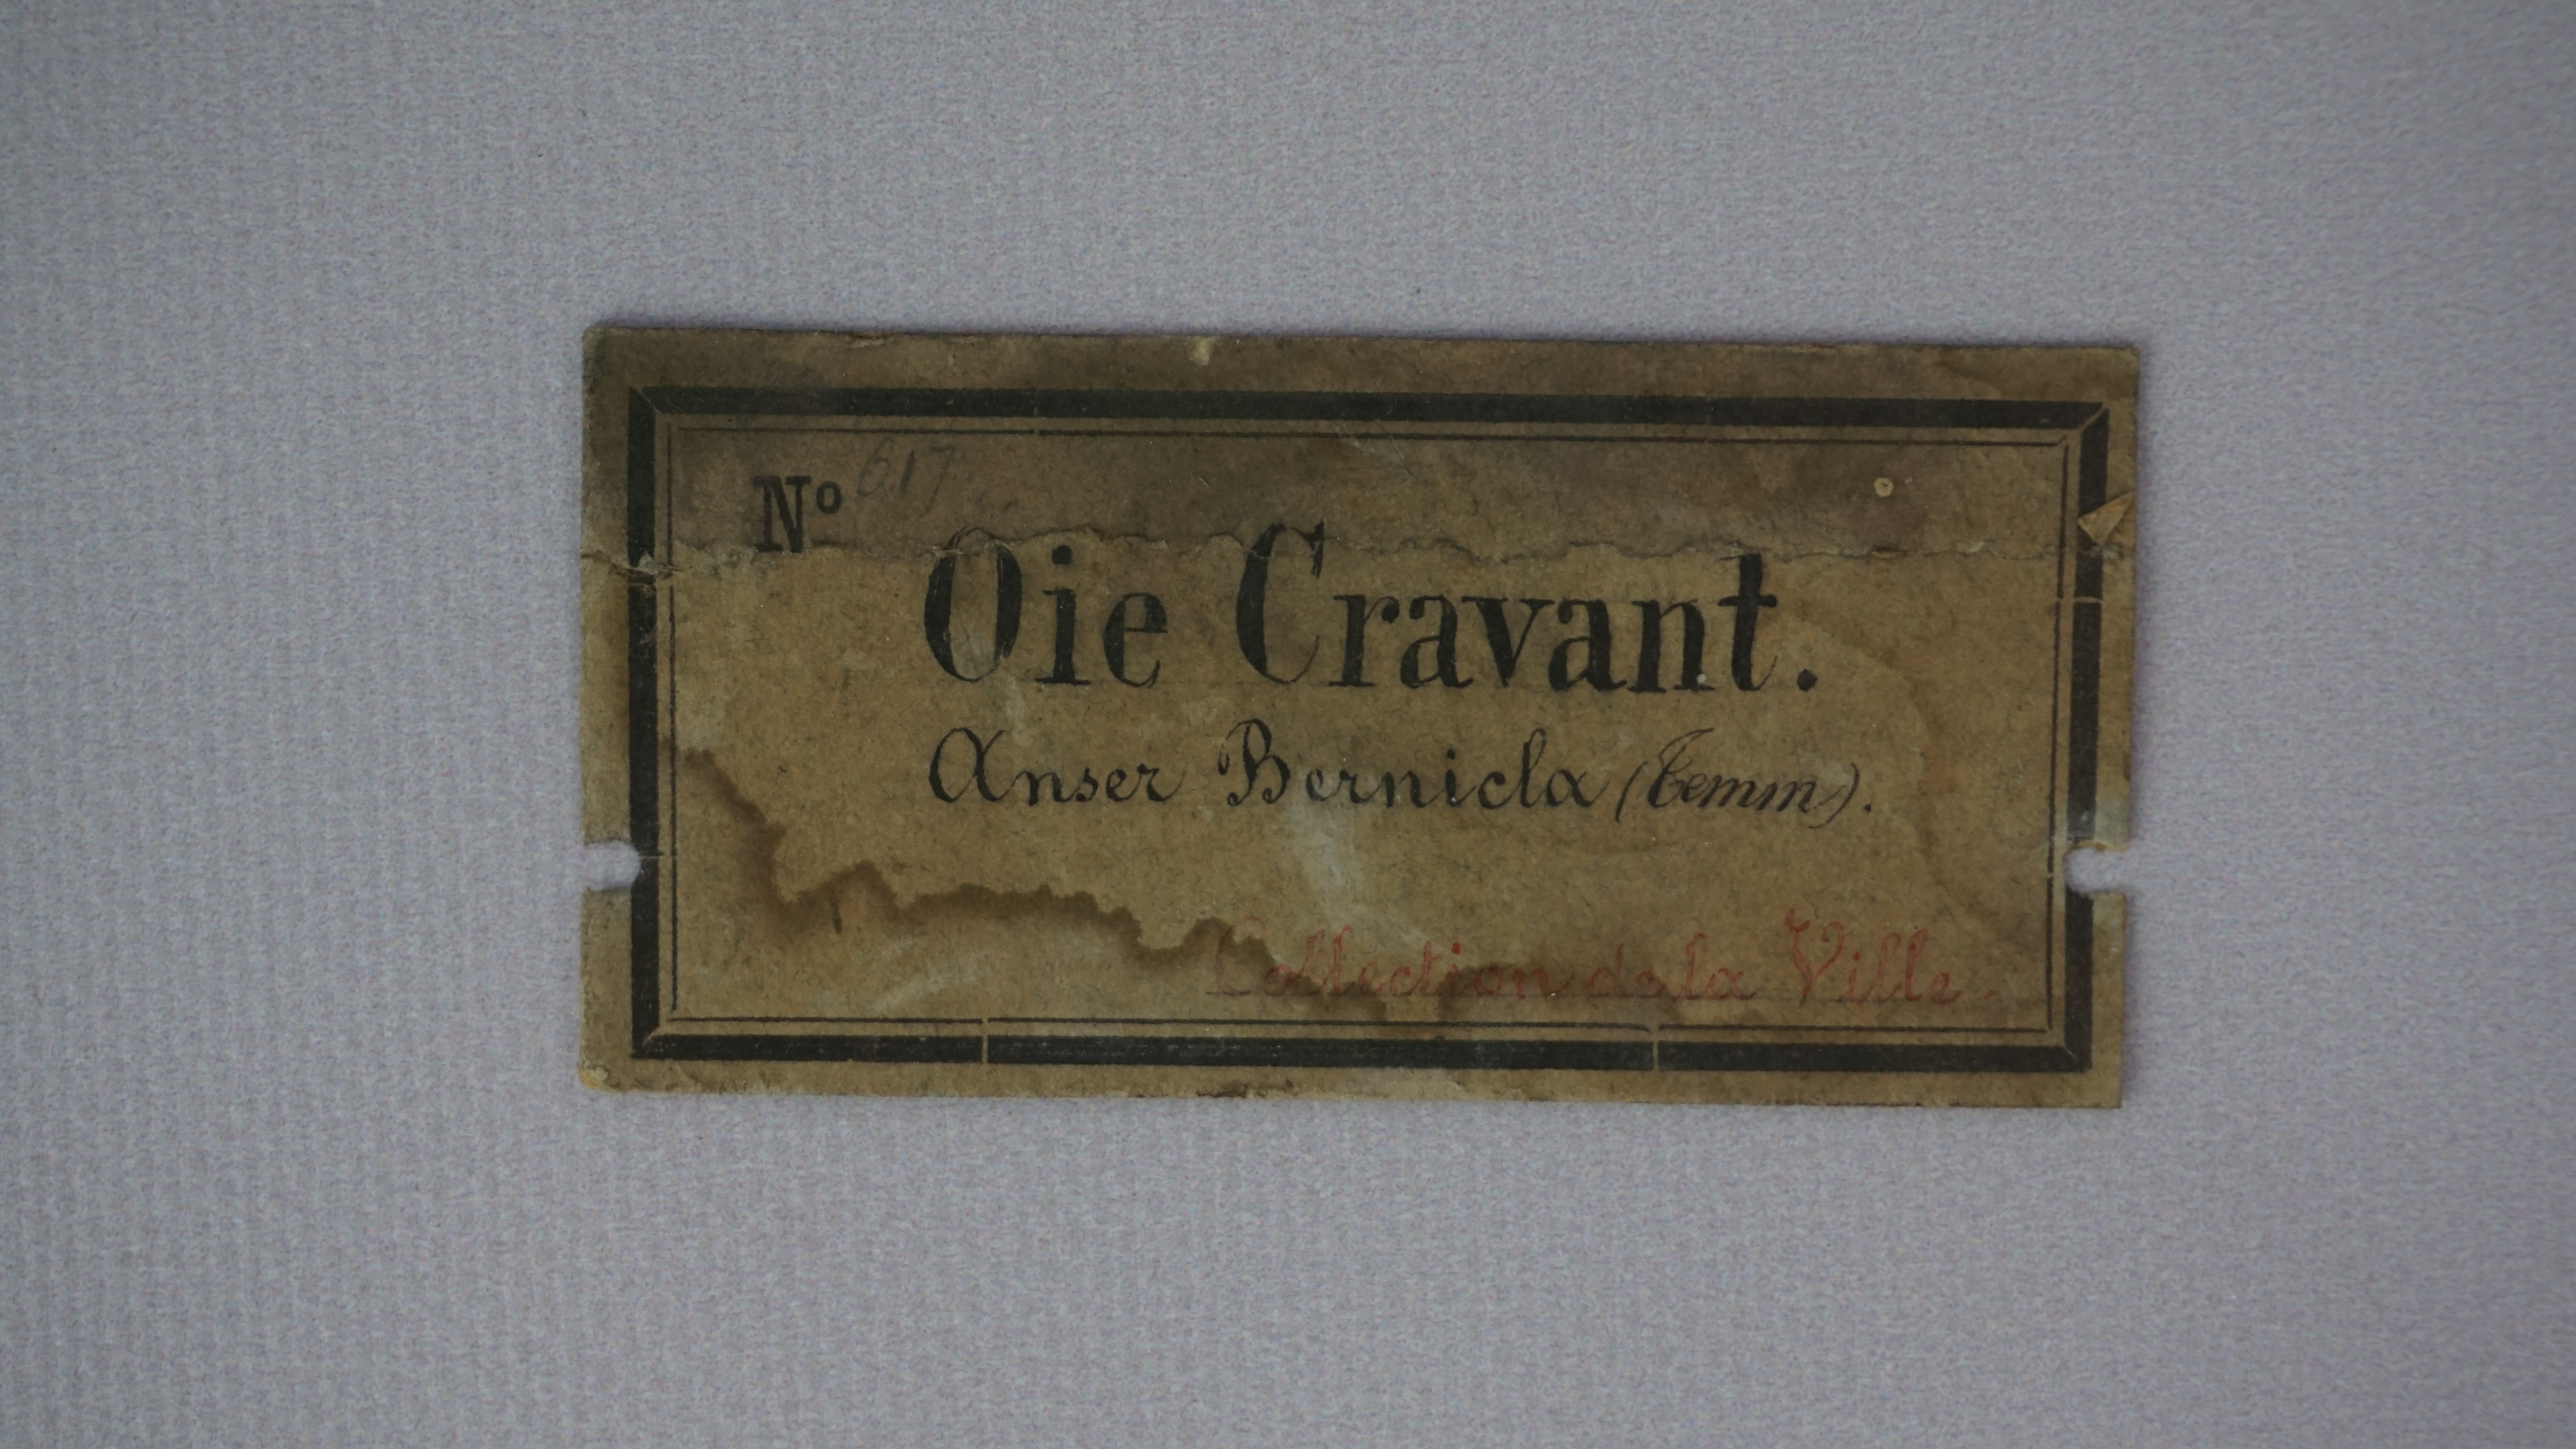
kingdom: Animalia
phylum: Chordata
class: Aves
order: Anseriformes
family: Anatidae
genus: Branta
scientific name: Branta bernicla
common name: Brant goose
